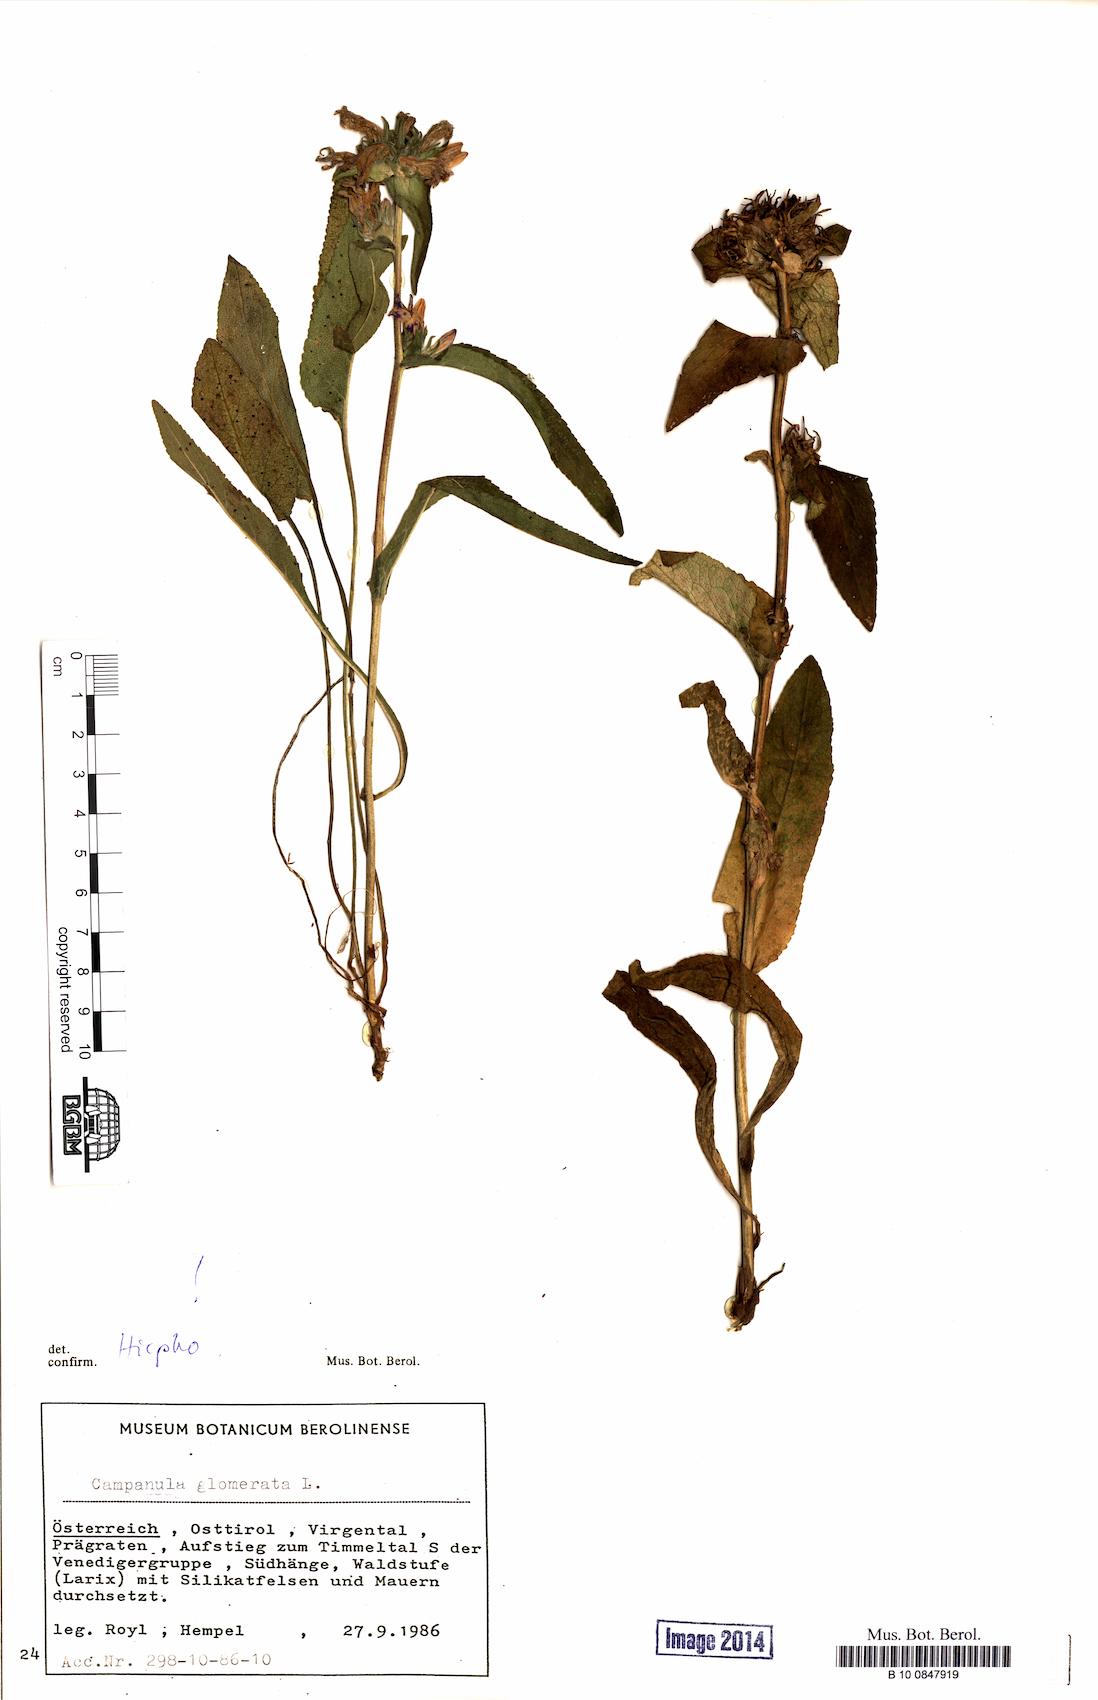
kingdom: Plantae
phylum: Tracheophyta
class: Magnoliopsida
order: Asterales
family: Campanulaceae
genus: Campanula
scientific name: Campanula glomerata
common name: Clustered bellflower
